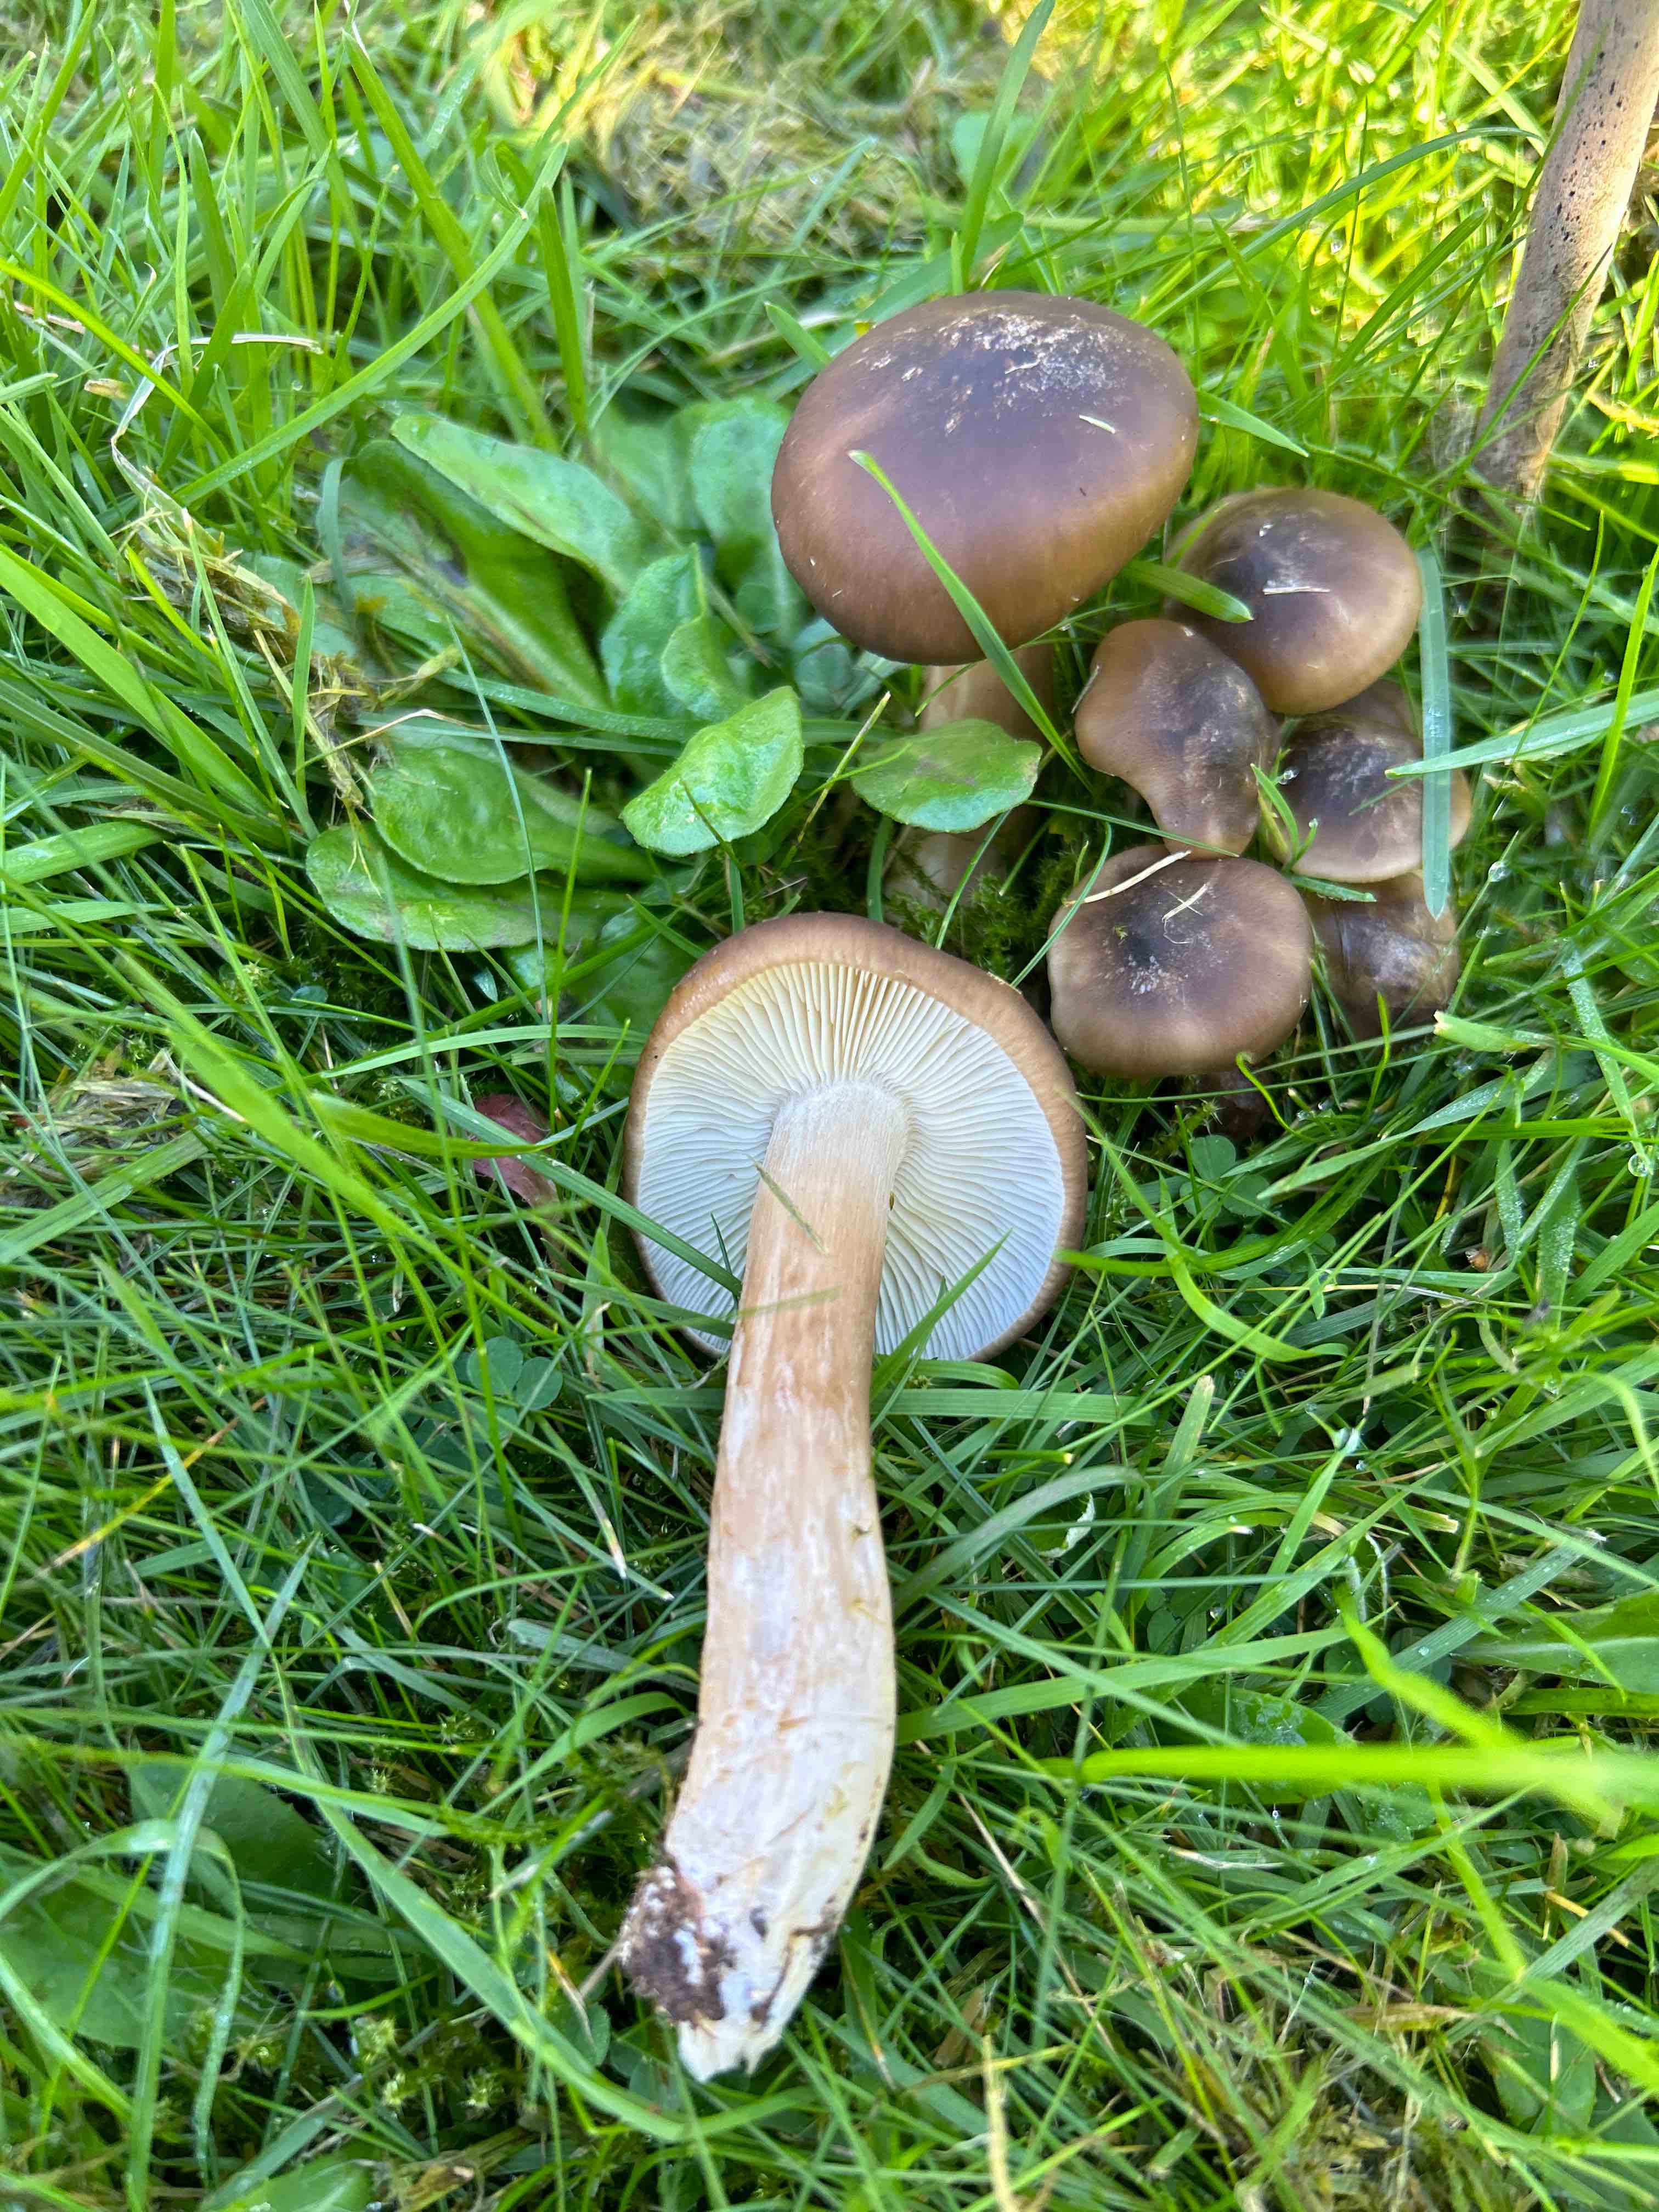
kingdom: Fungi
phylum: Basidiomycota
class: Agaricomycetes
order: Agaricales
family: Lyophyllaceae
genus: Lyophyllum
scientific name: Lyophyllum decastes
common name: røggrå gråblad
